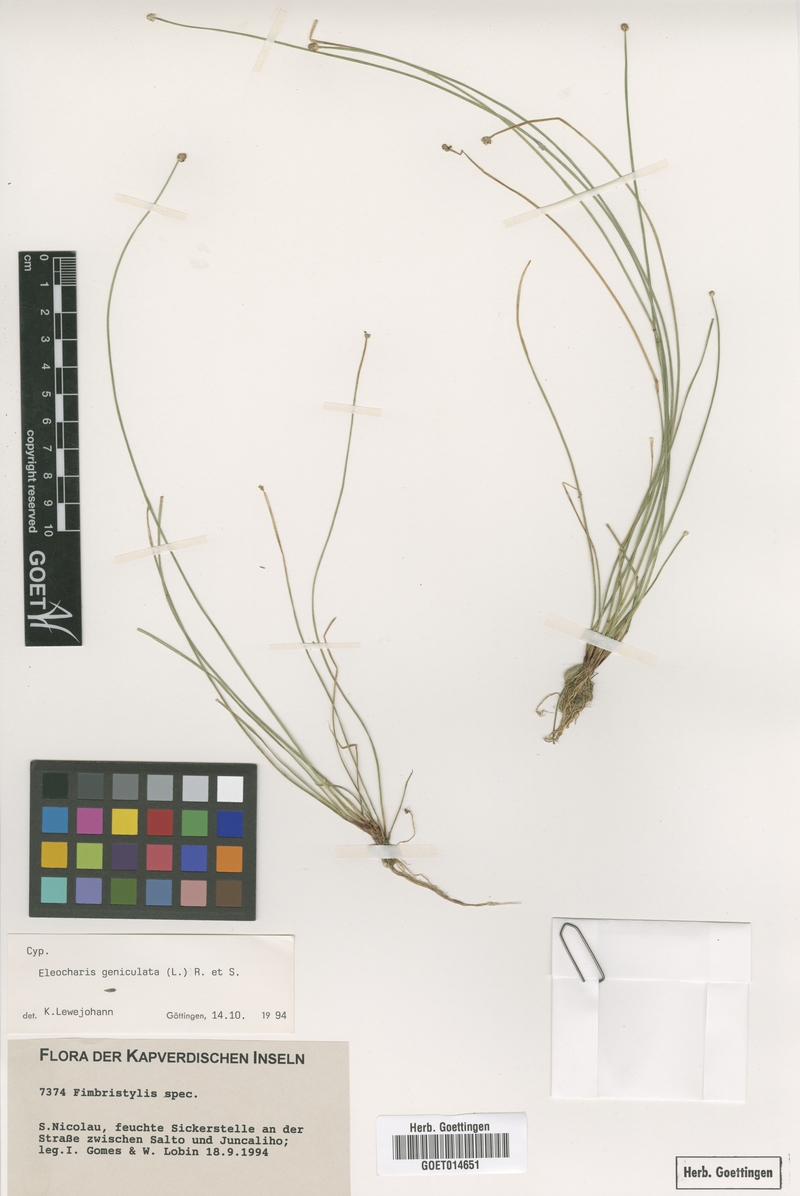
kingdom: Plantae
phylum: Tracheophyta
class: Liliopsida
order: Poales
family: Cyperaceae
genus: Eleocharis
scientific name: Eleocharis geniculata
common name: Canada spikesedge
